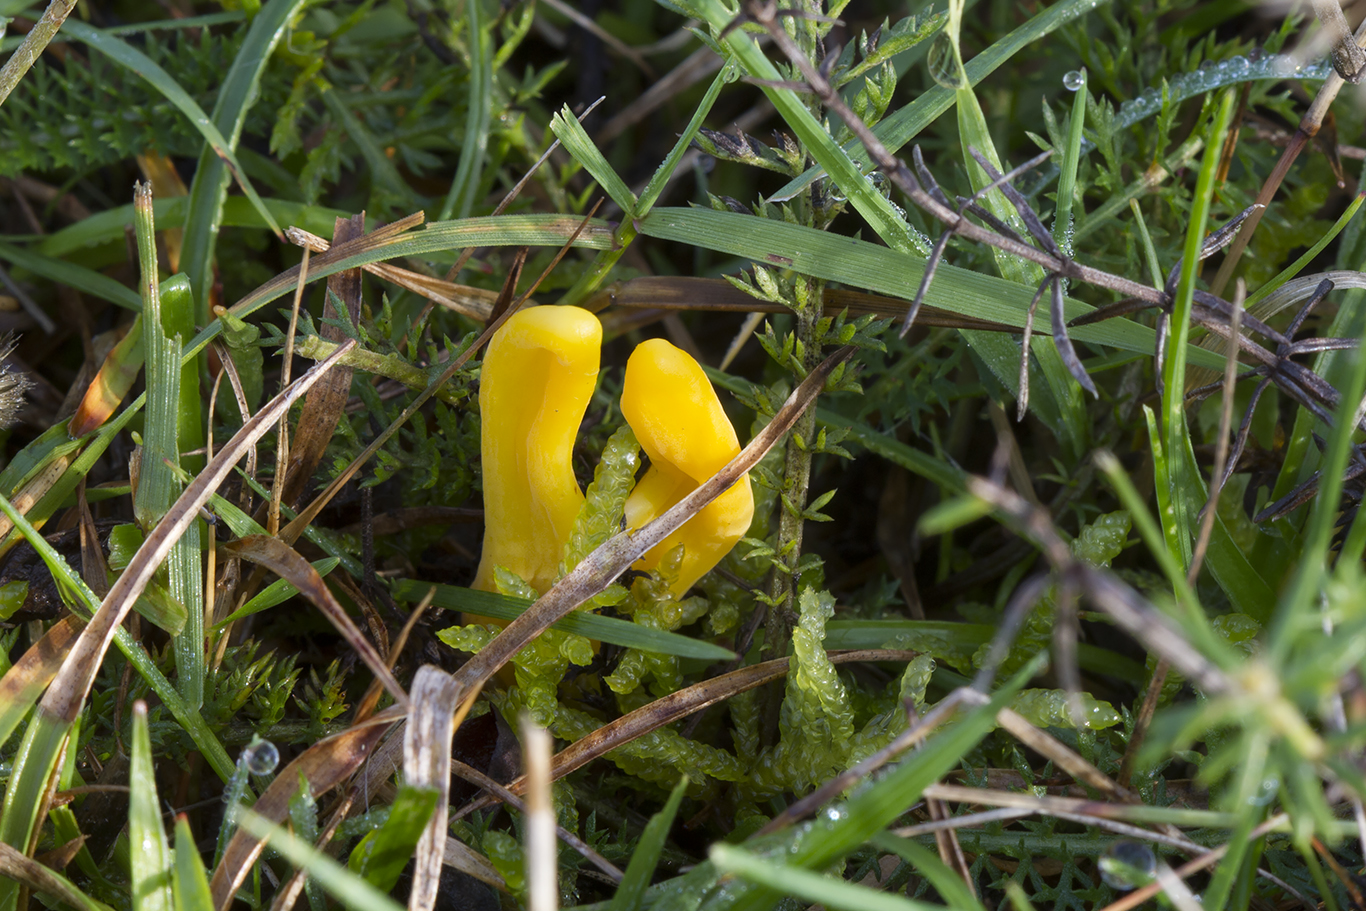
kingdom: Fungi
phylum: Basidiomycota
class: Agaricomycetes
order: Agaricales
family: Clavariaceae
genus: Clavulinopsis
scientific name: Clavulinopsis helvola
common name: orangegul køllesvamp
